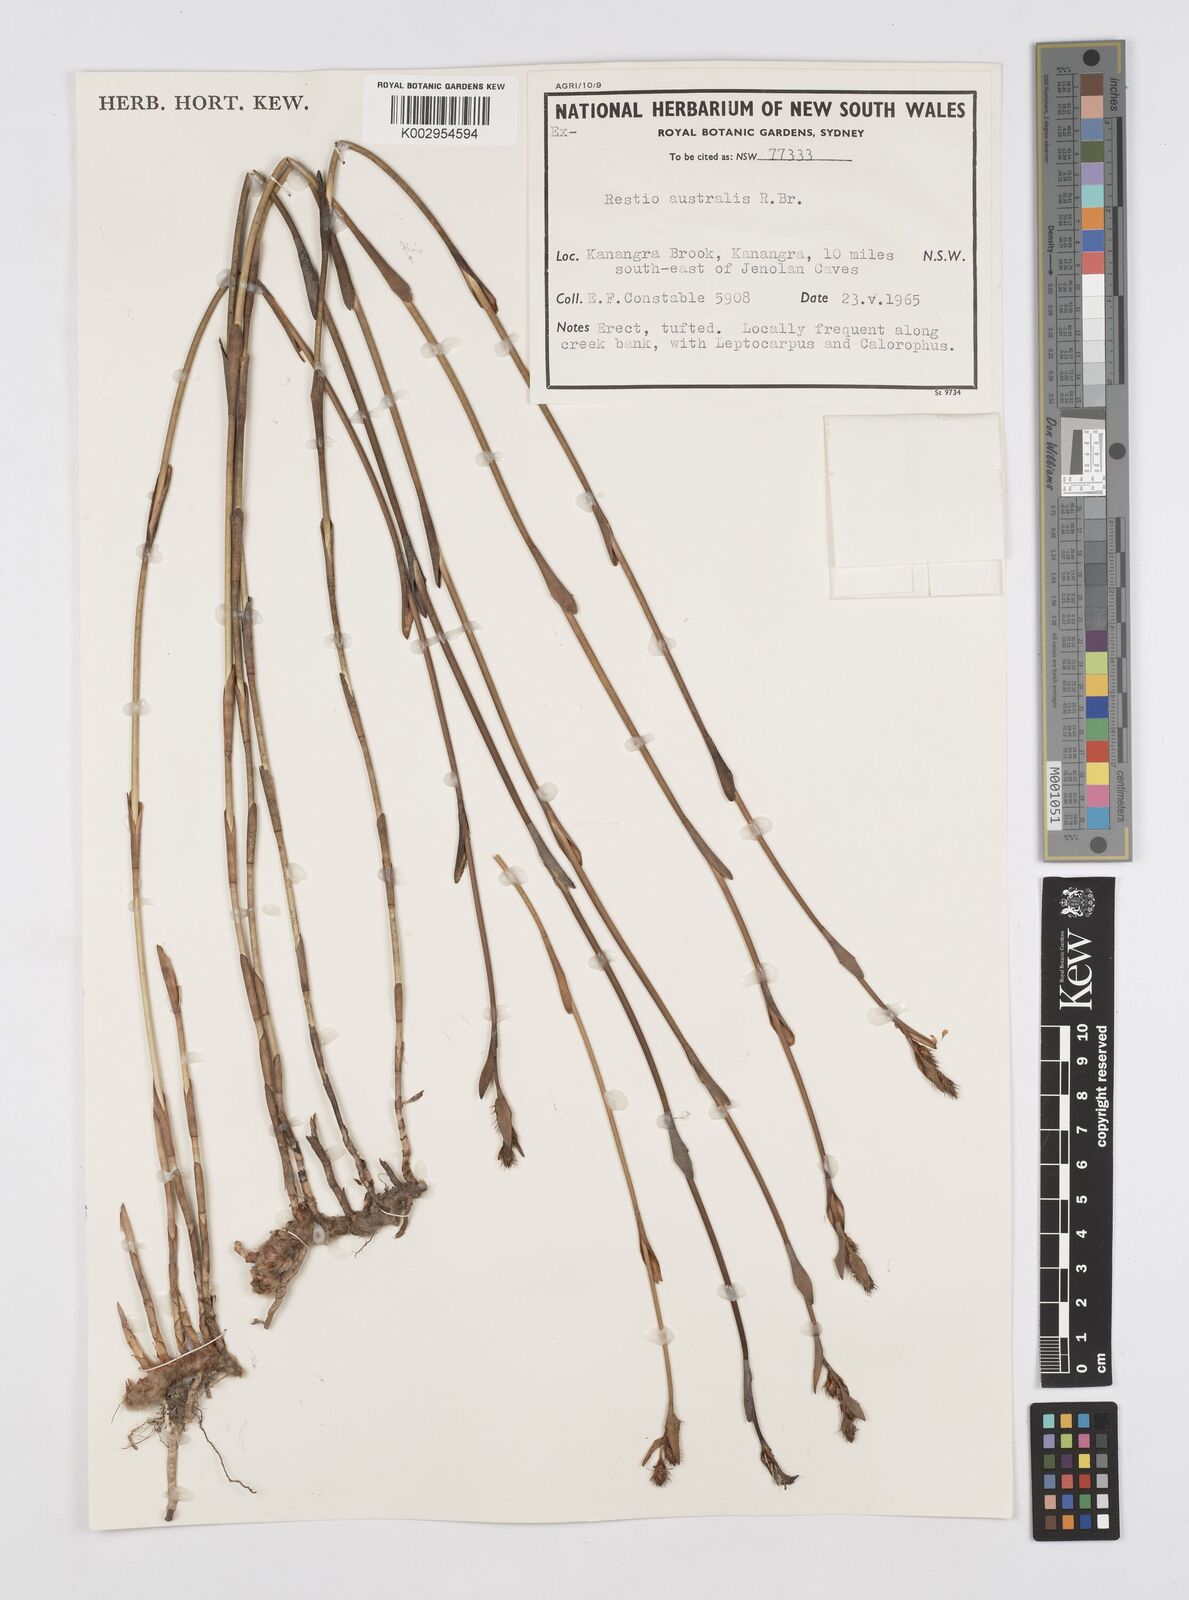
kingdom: Plantae
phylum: Tracheophyta
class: Liliopsida
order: Poales
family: Restionaceae
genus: Baloskion
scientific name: Baloskion australe
